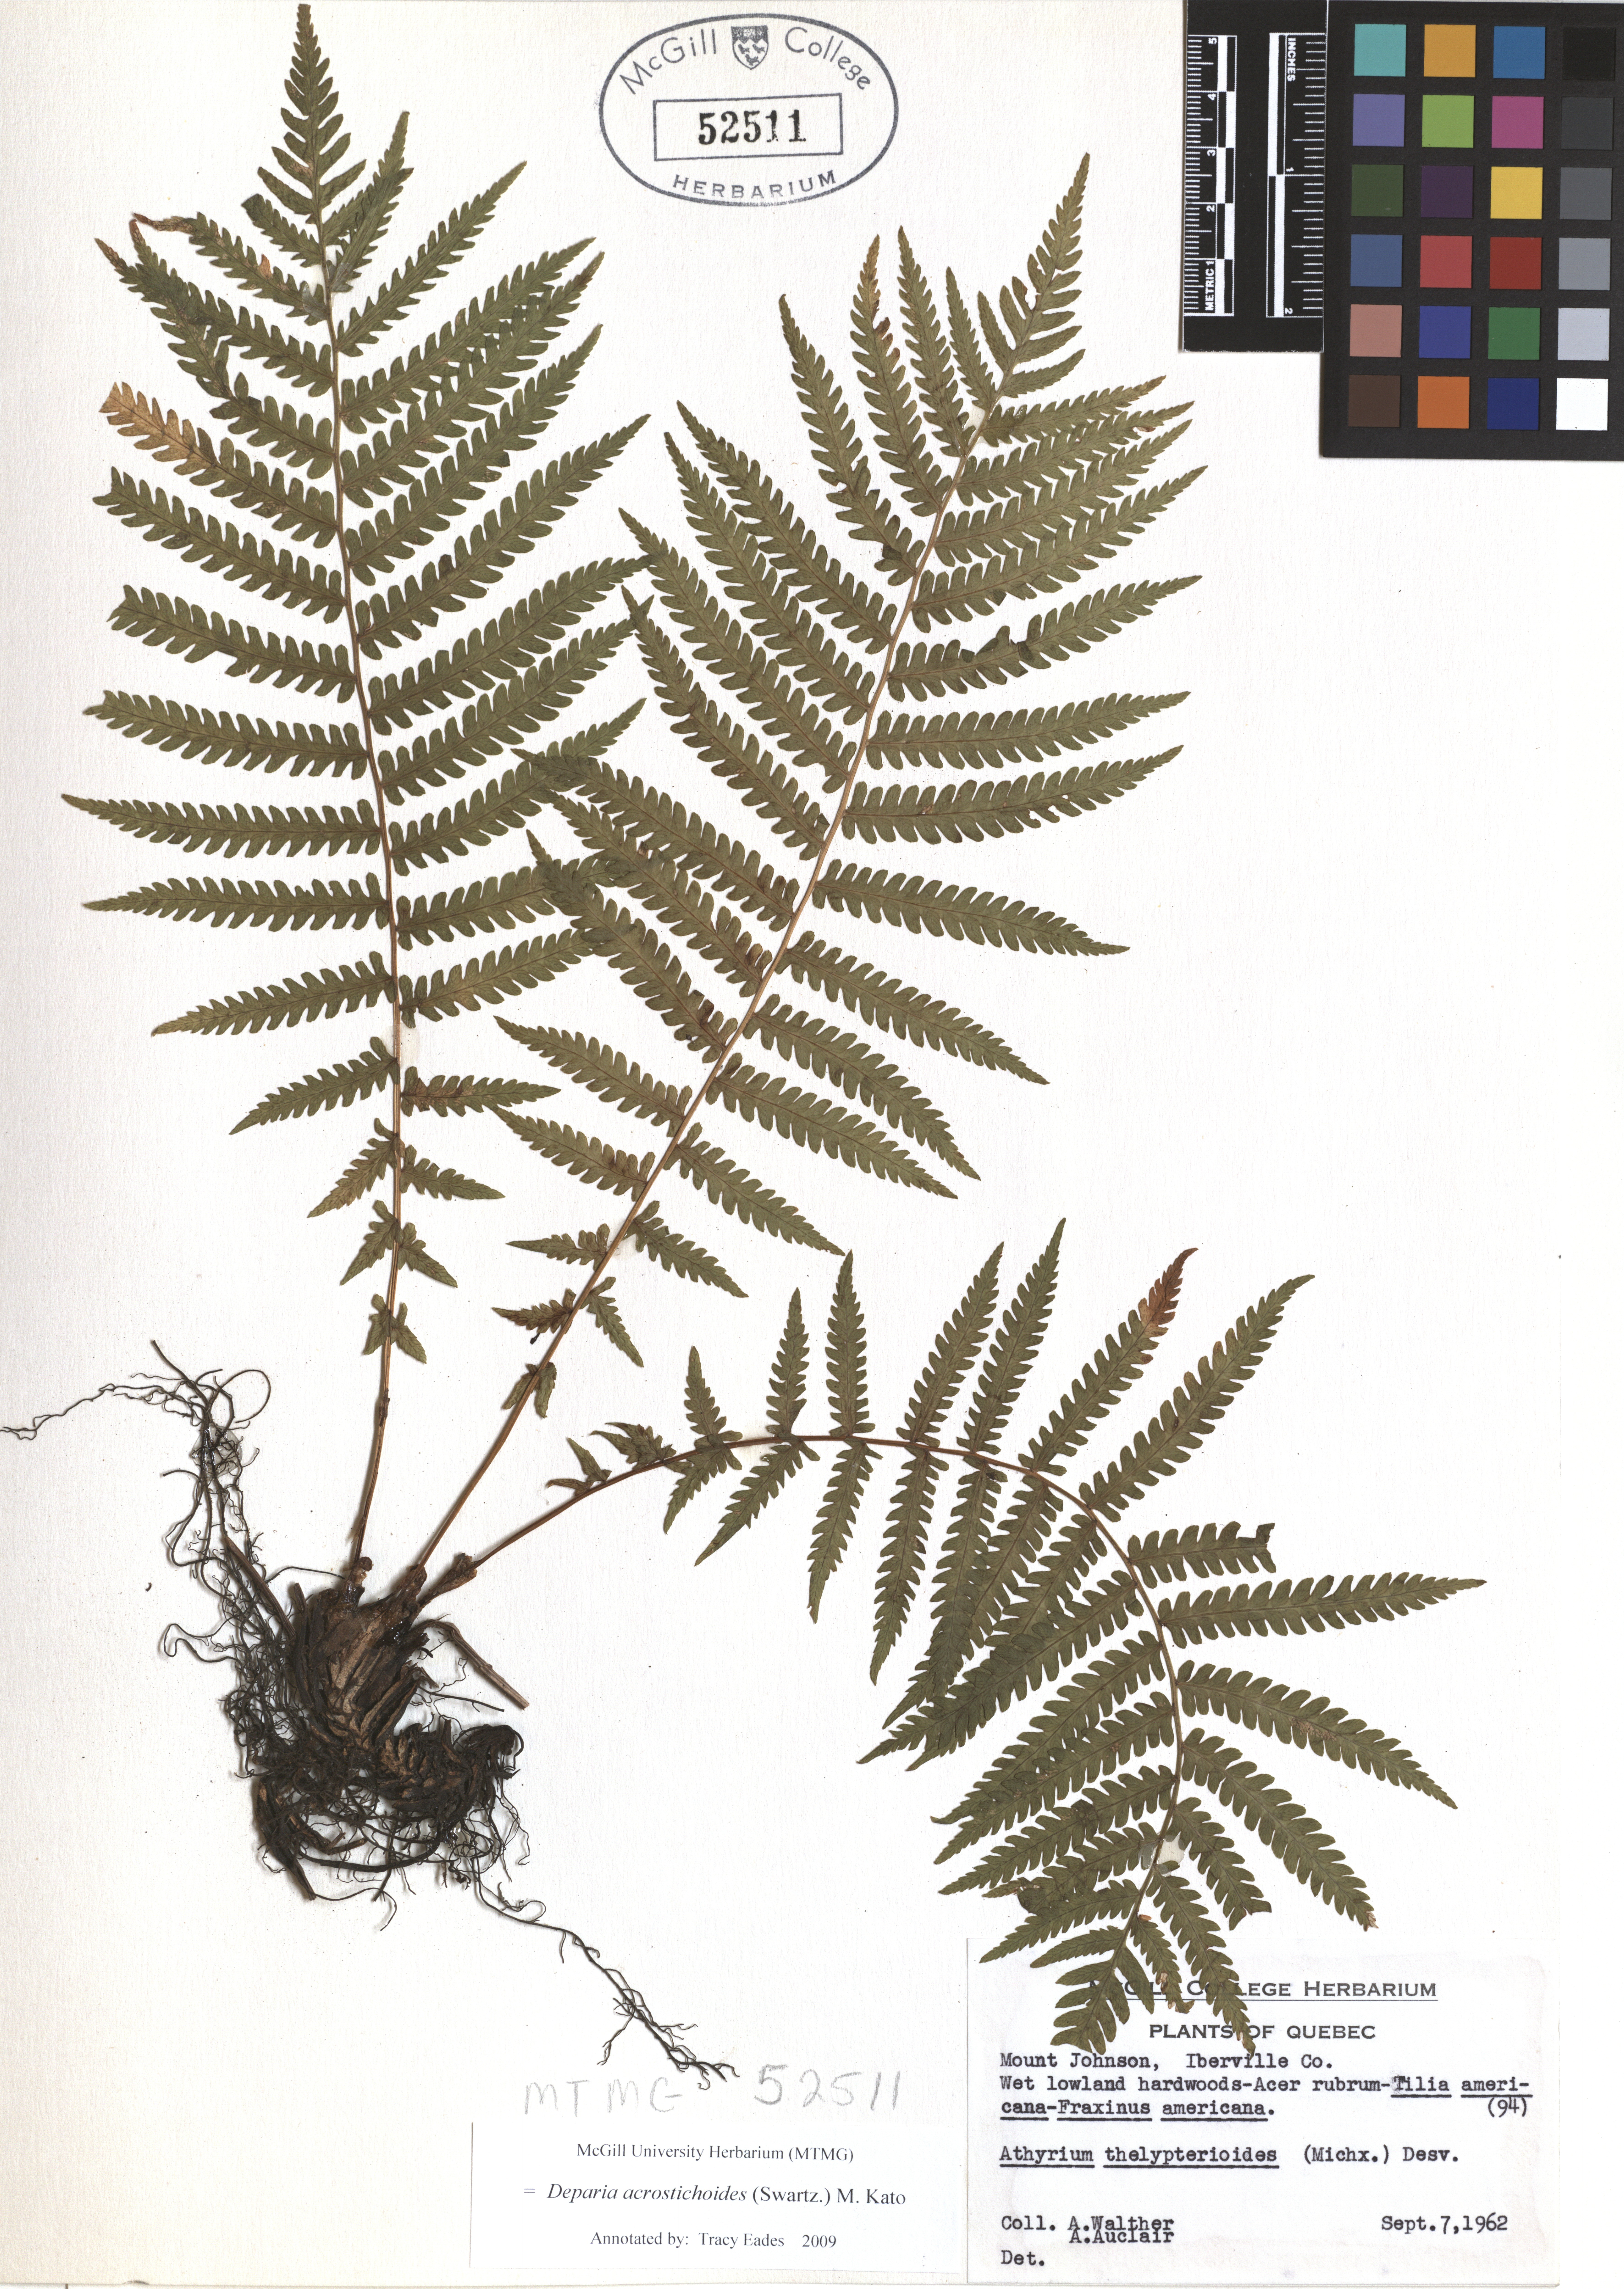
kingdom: Plantae
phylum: Tracheophyta
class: Polypodiopsida
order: Polypodiales
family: Athyriaceae
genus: Deparia
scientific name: Deparia acrostichoides
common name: Silver false spleenwort
